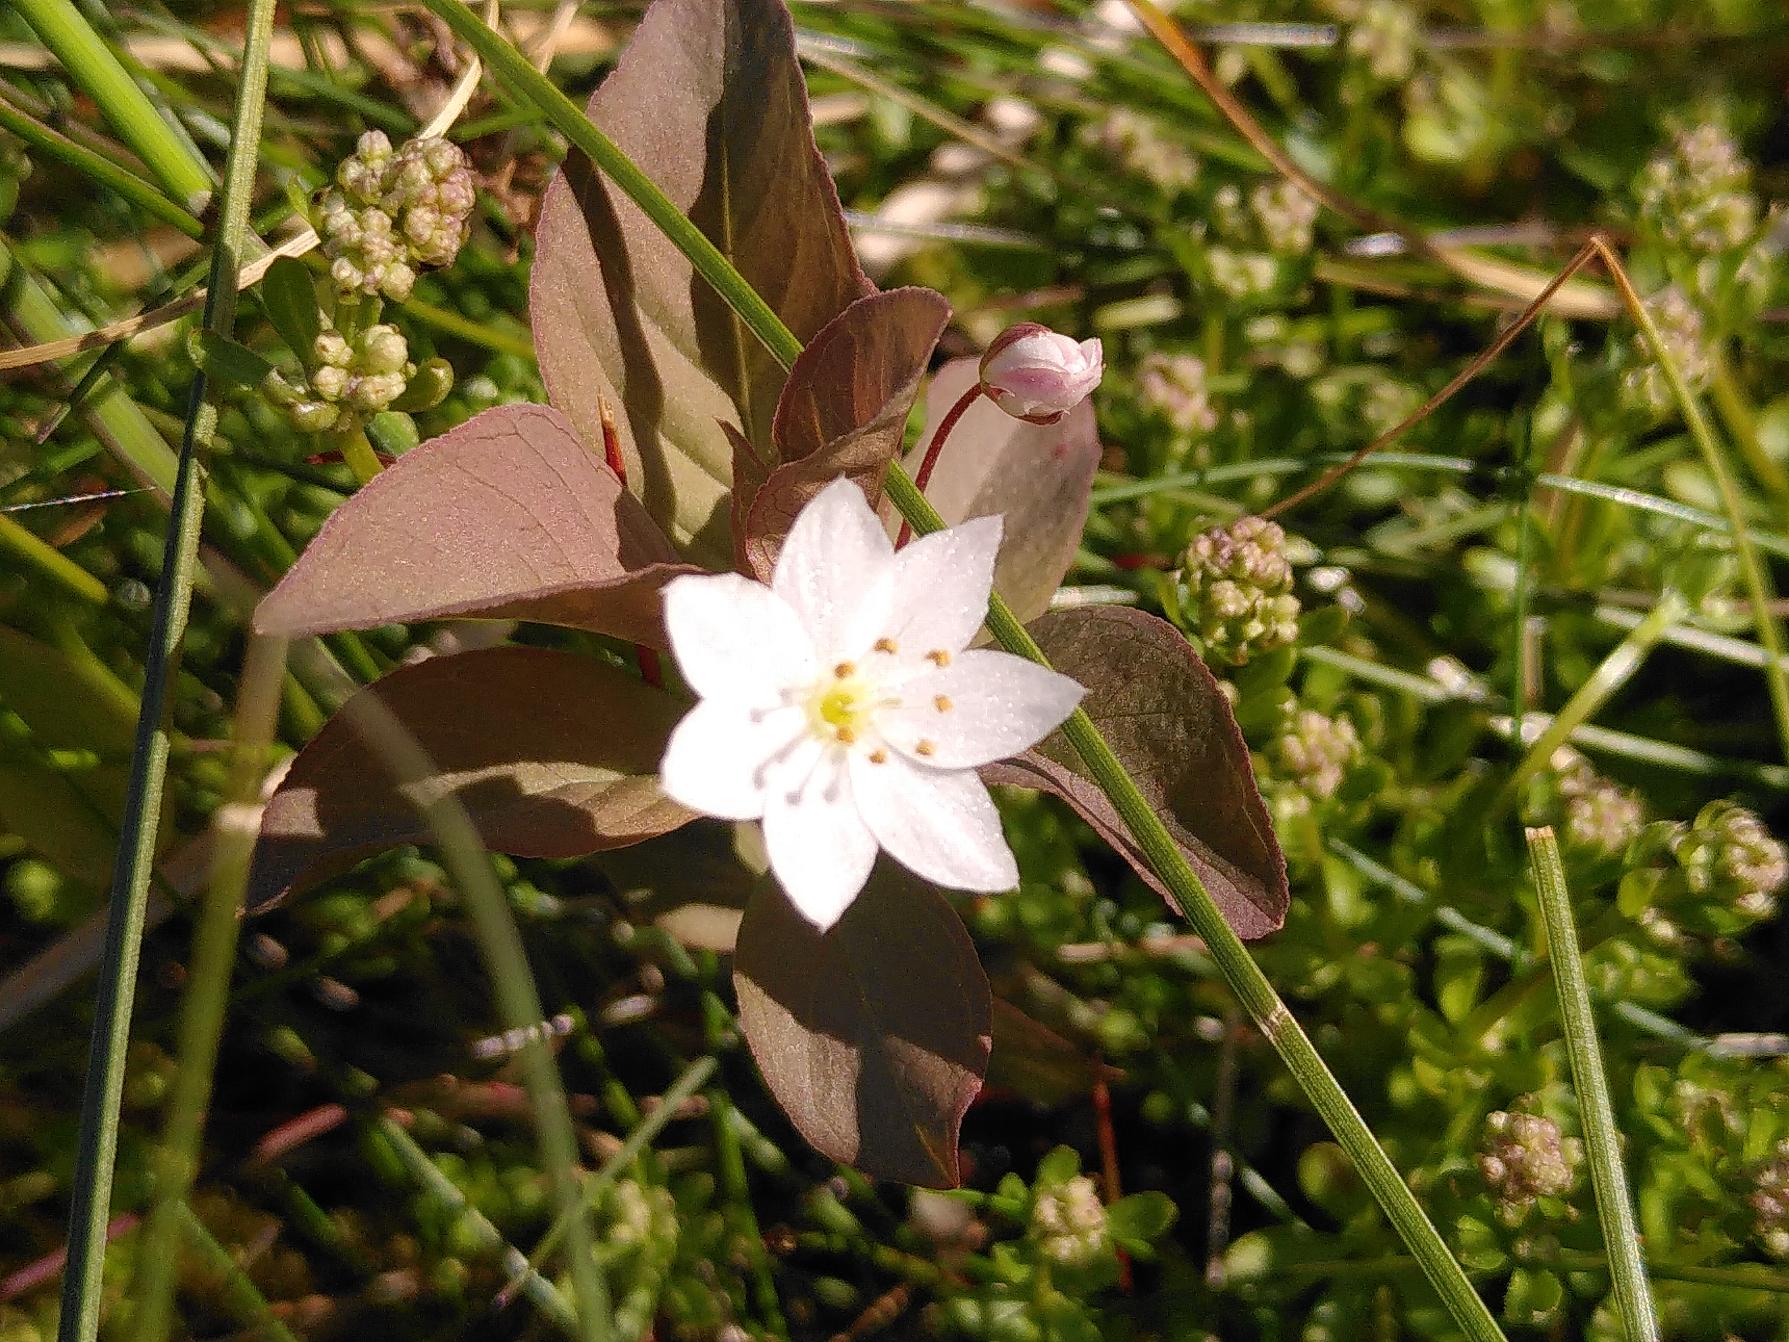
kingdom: Plantae
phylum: Tracheophyta
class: Magnoliopsida
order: Ericales
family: Primulaceae
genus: Lysimachia
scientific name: Lysimachia europaea
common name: Skovstjerne
